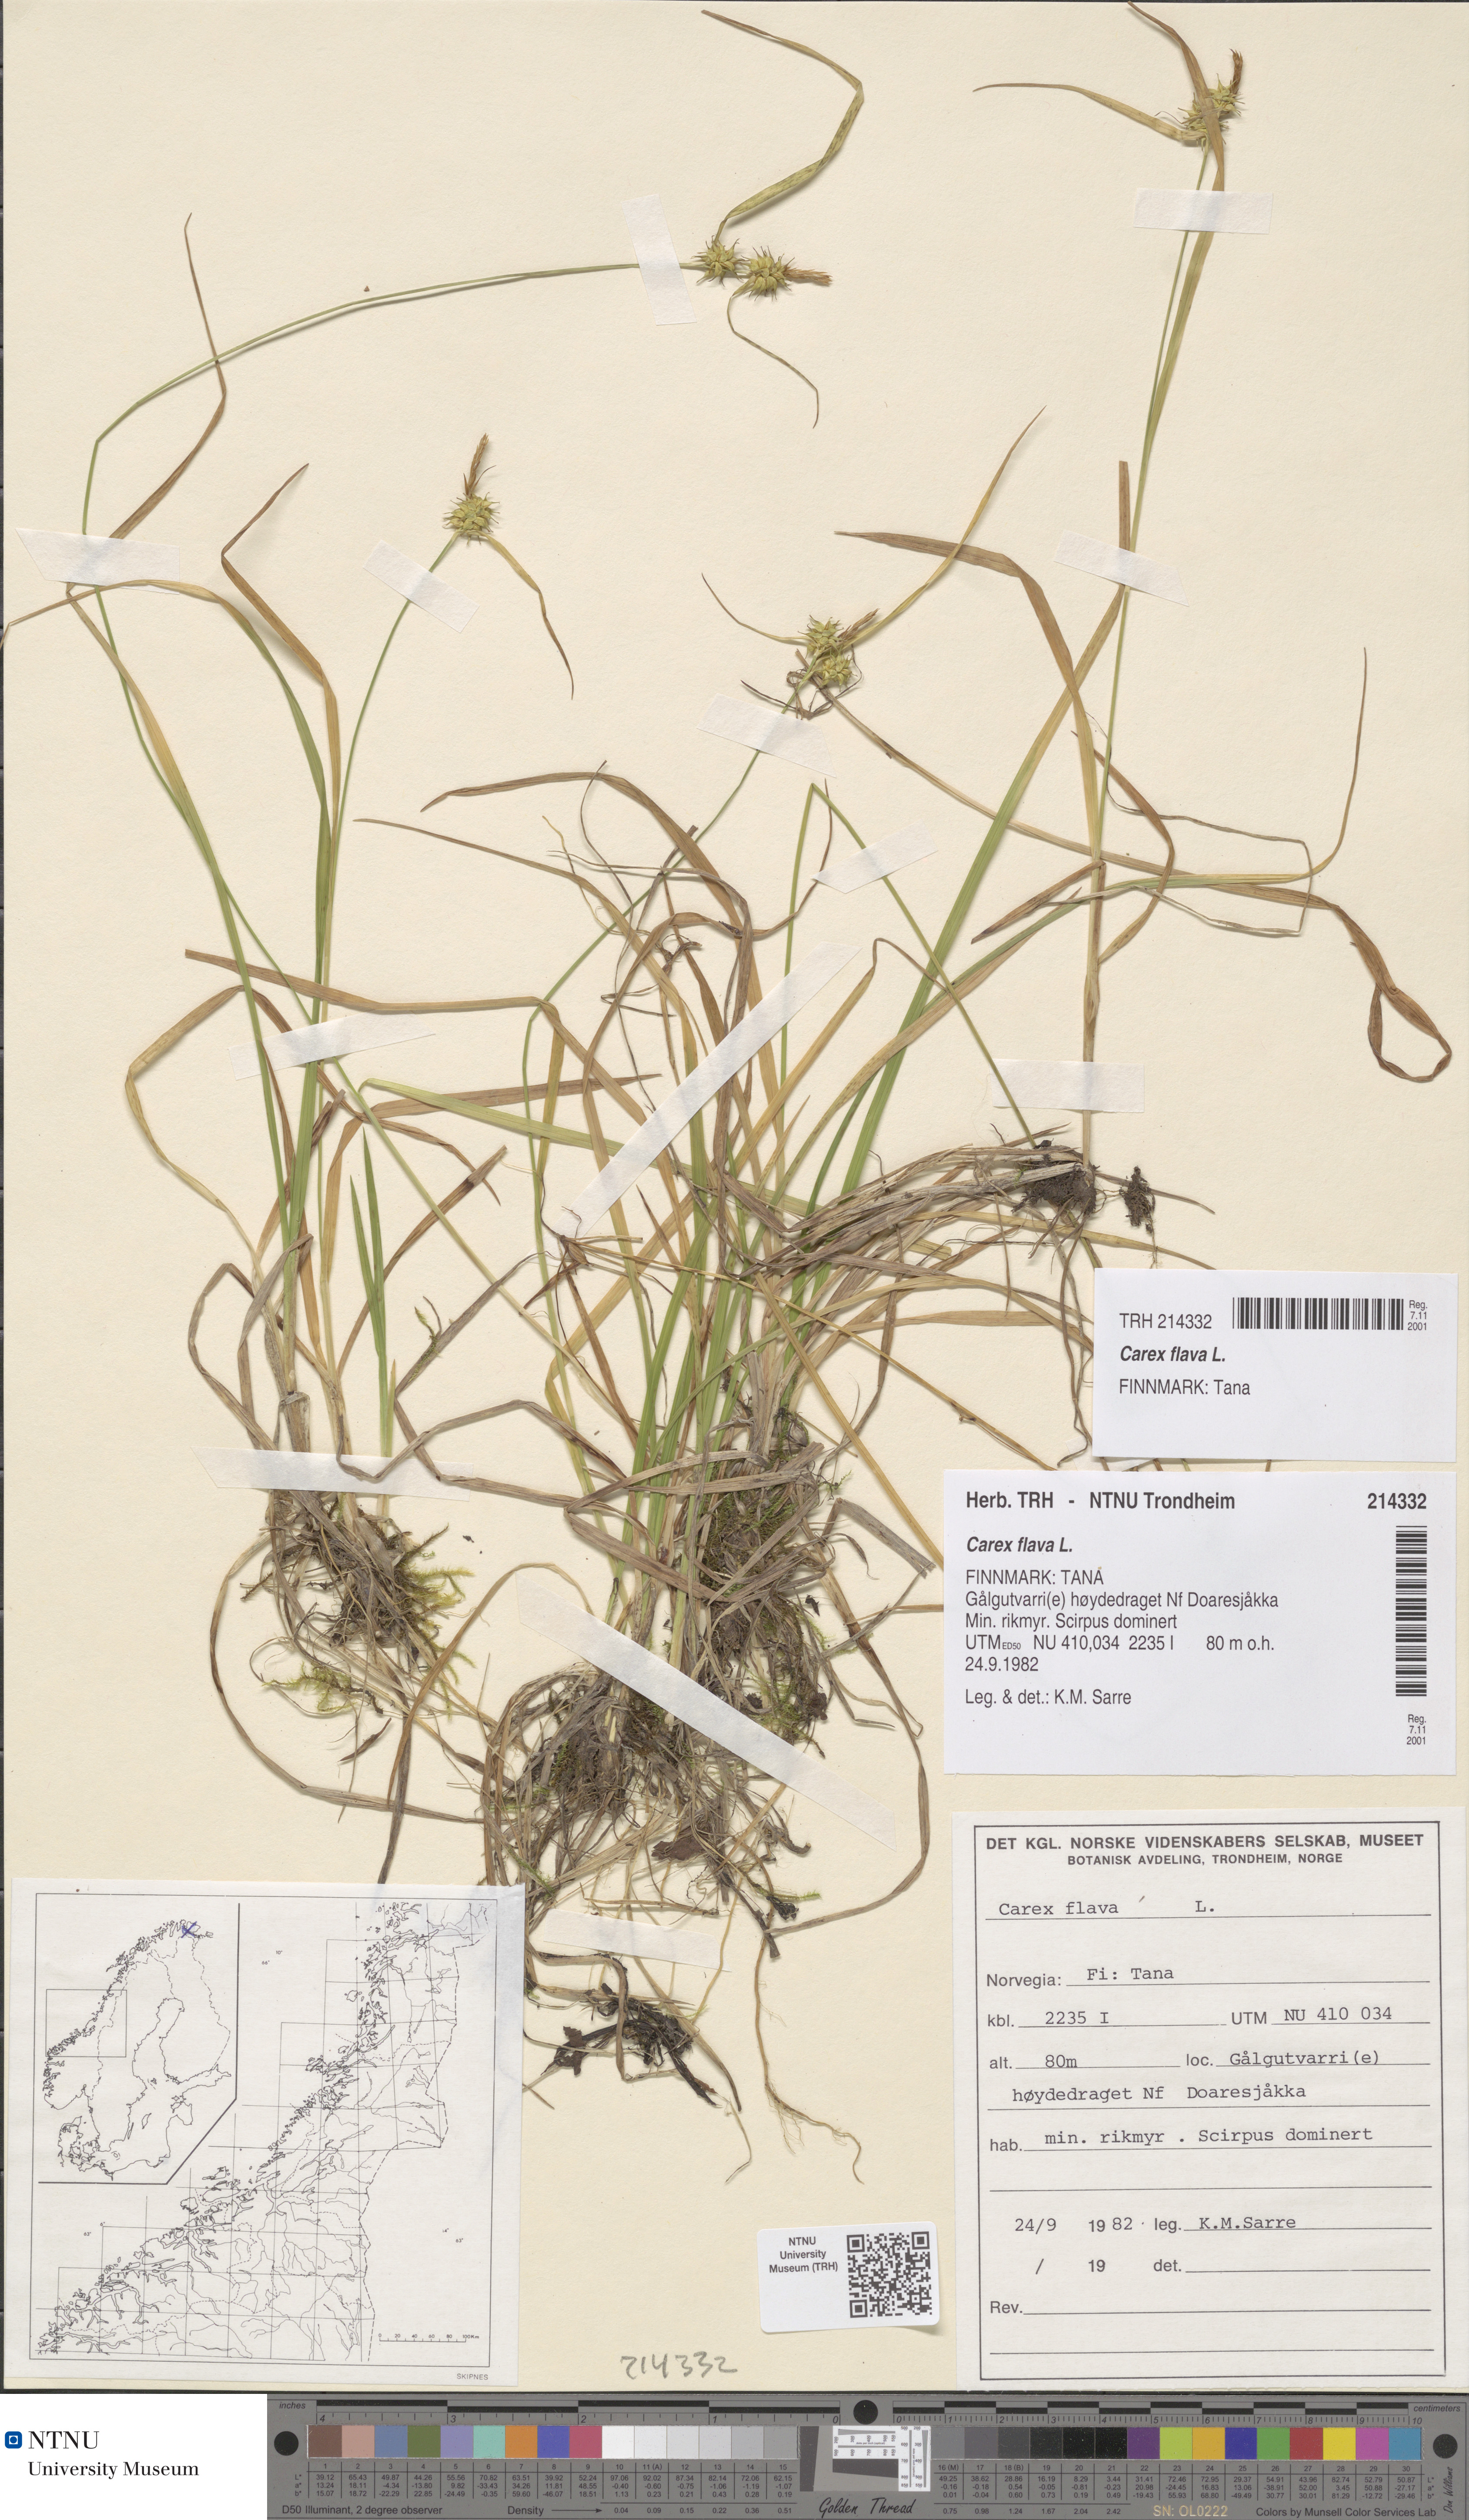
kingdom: Plantae
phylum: Tracheophyta
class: Liliopsida
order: Poales
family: Cyperaceae
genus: Carex
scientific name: Carex flava
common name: Large yellow-sedge
